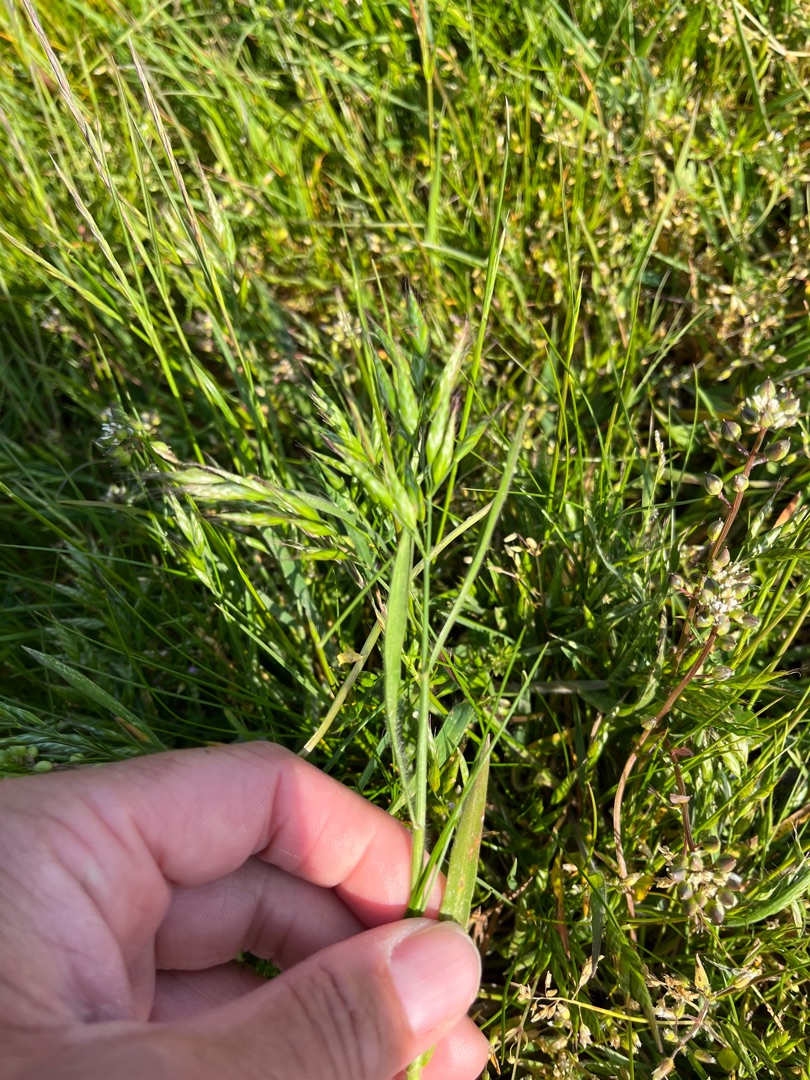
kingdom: Plantae
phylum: Tracheophyta
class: Liliopsida
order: Poales
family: Poaceae
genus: Bromus
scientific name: Bromus hordeaceus
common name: Blød hejre
